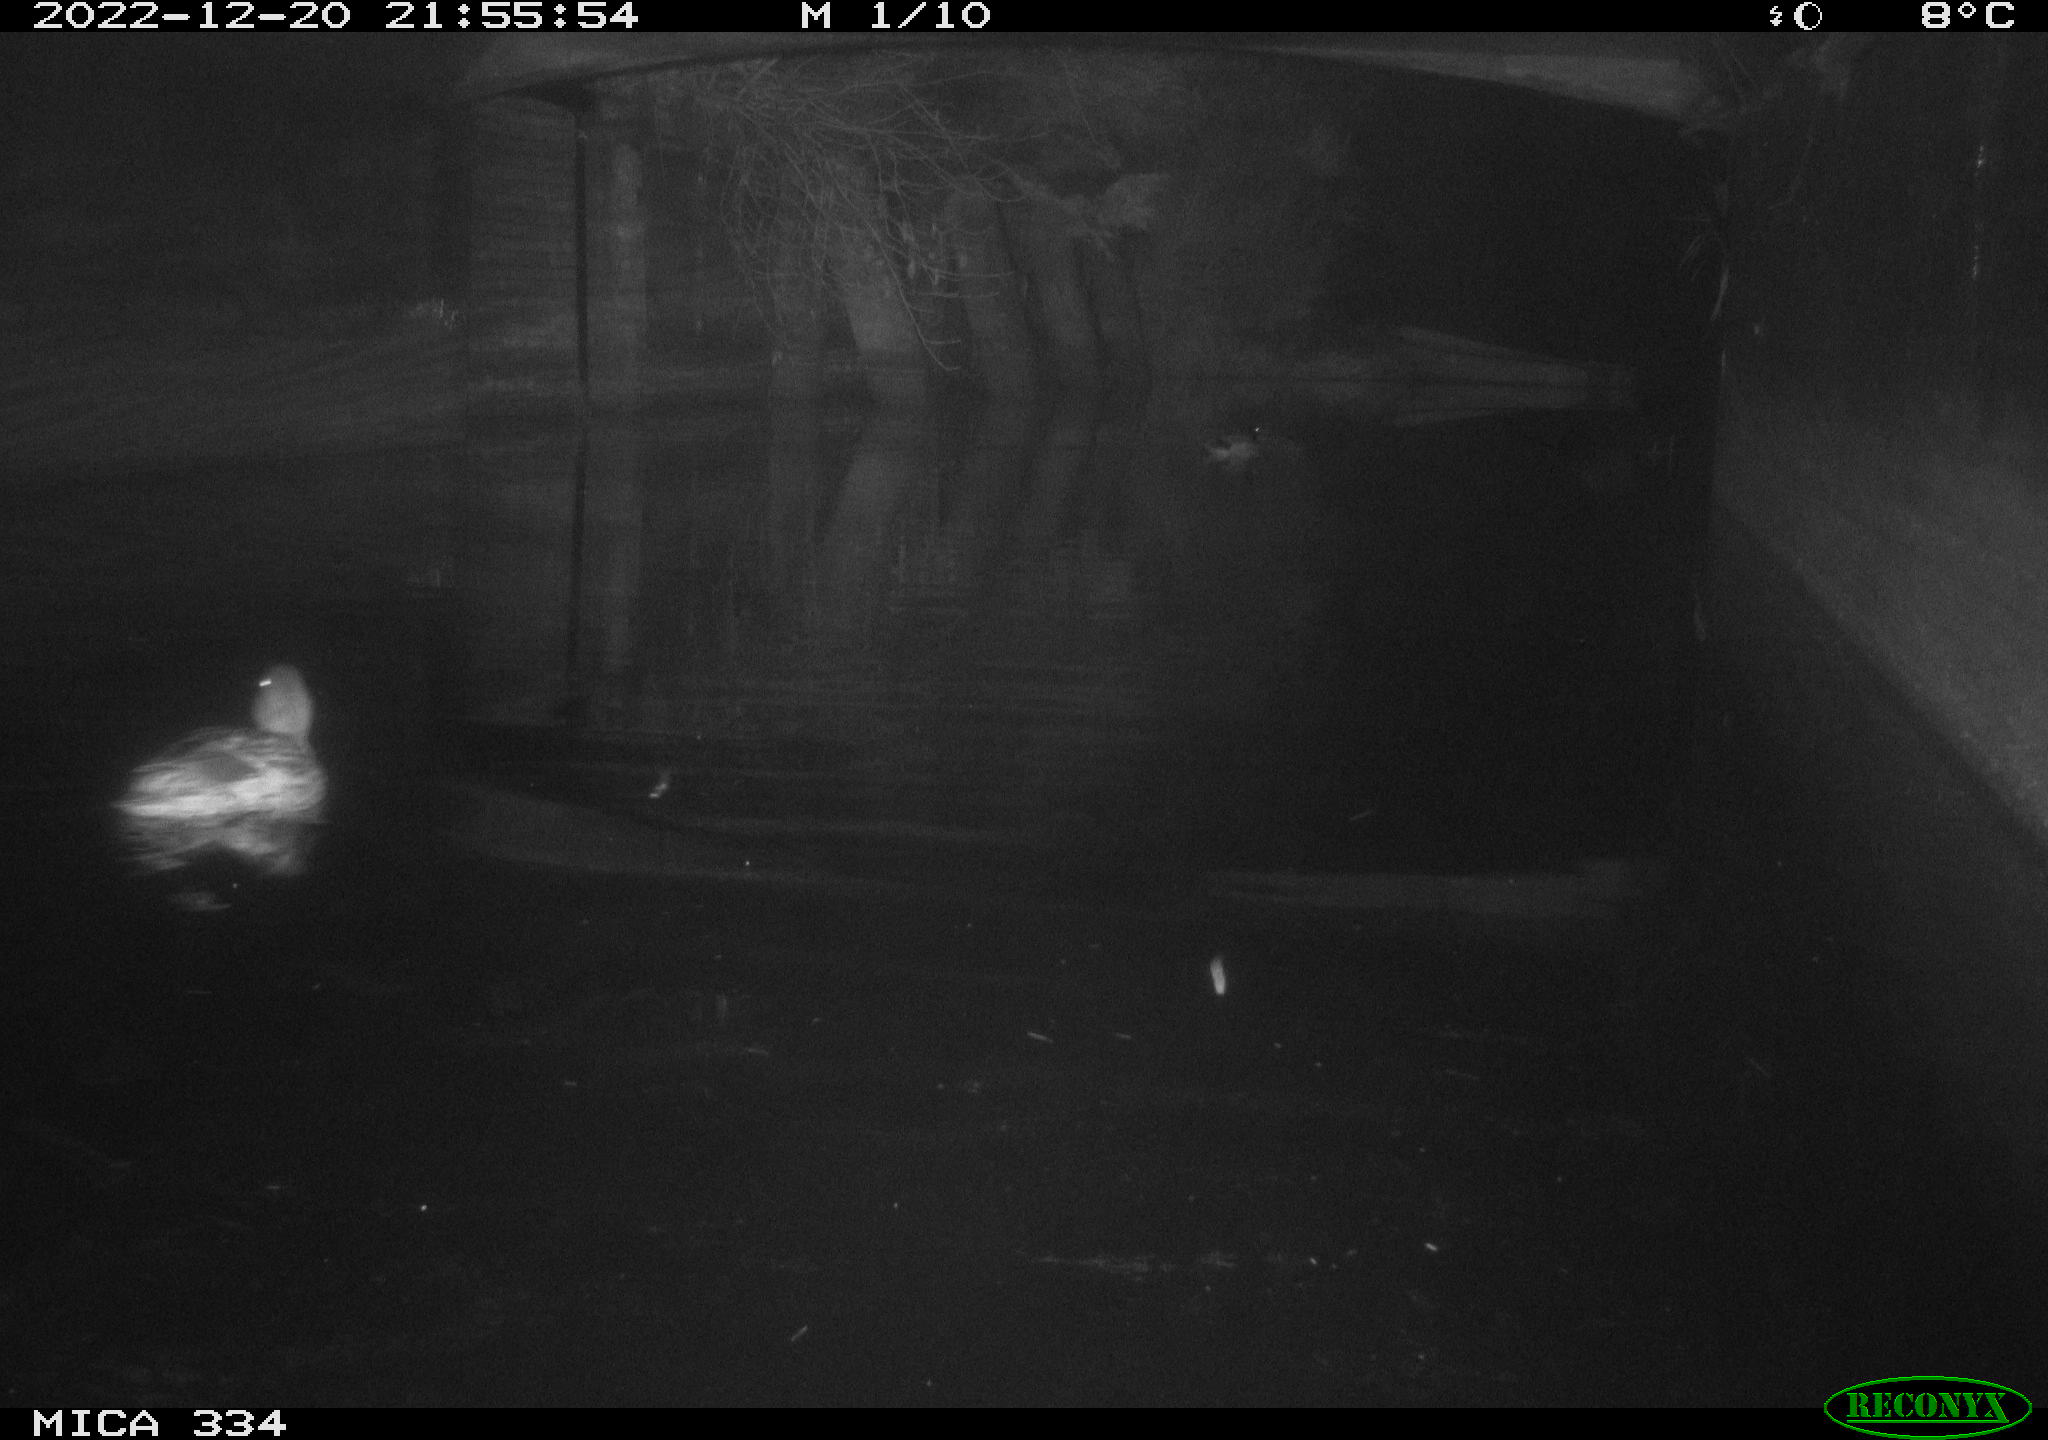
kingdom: Animalia
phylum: Chordata
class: Aves
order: Anseriformes
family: Anatidae
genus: Anas
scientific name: Anas
